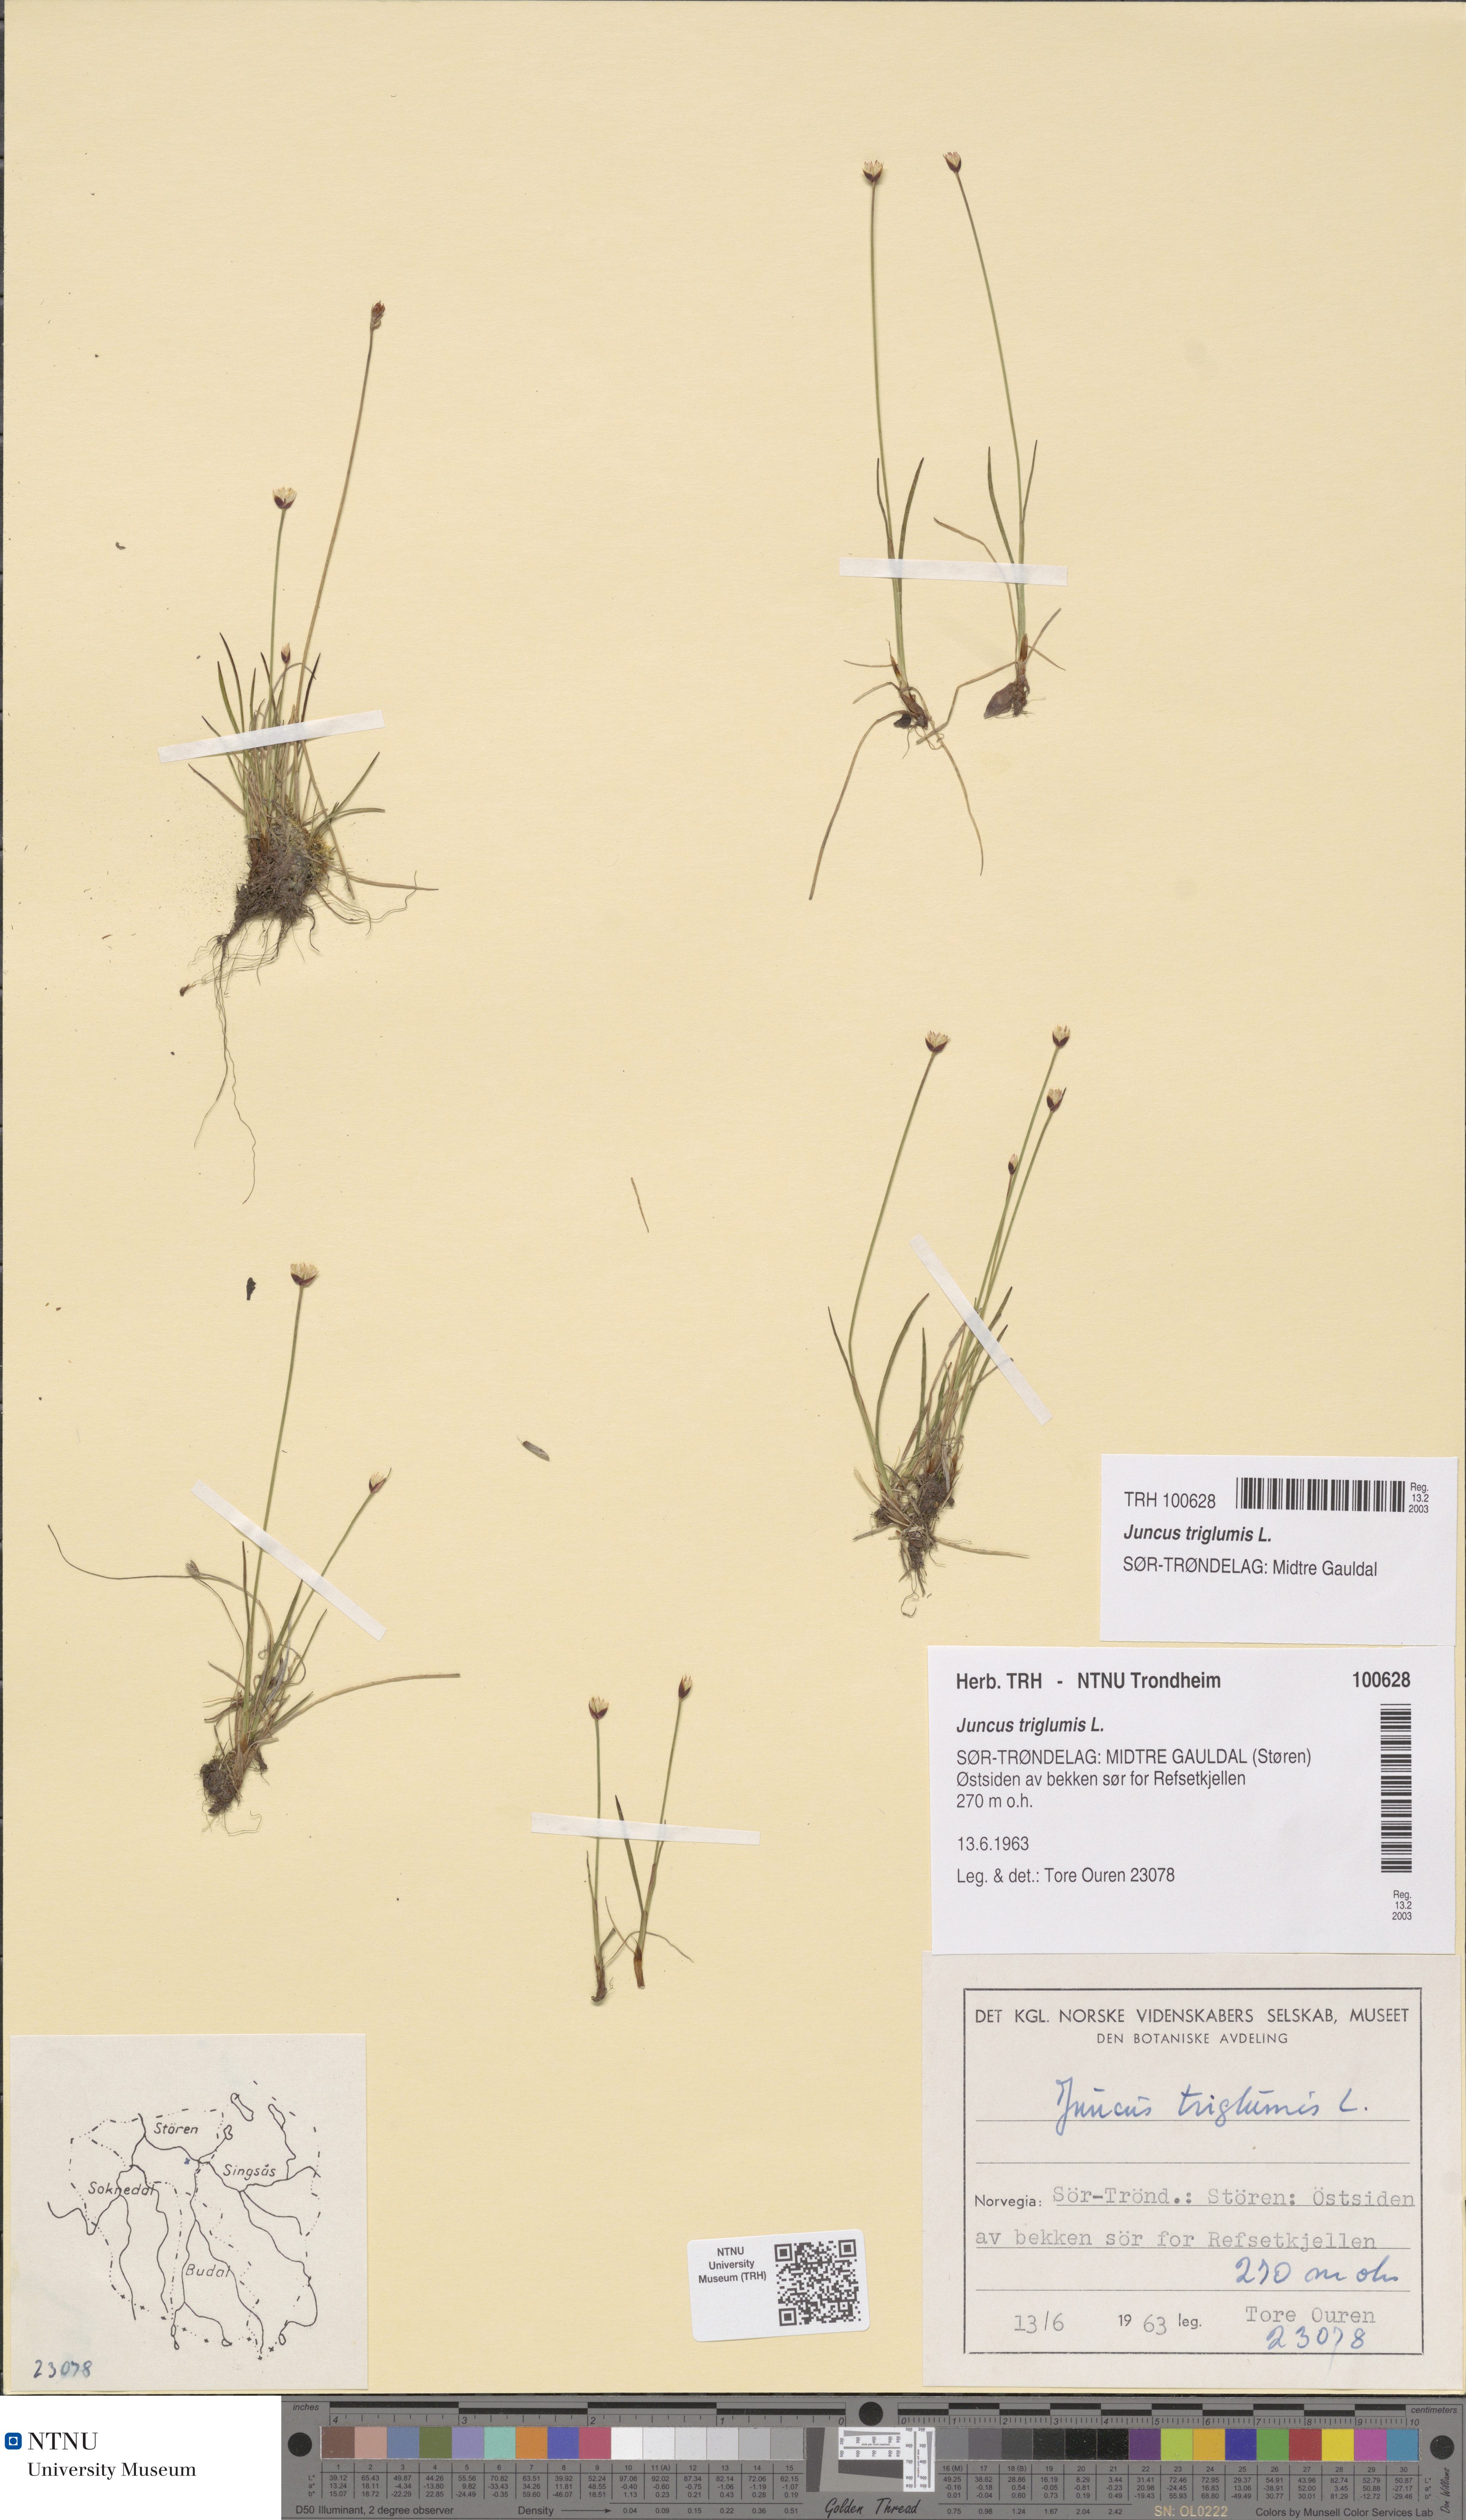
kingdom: Plantae
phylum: Tracheophyta
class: Liliopsida
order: Poales
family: Juncaceae
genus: Juncus
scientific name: Juncus triglumis
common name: Three-flowered rush
